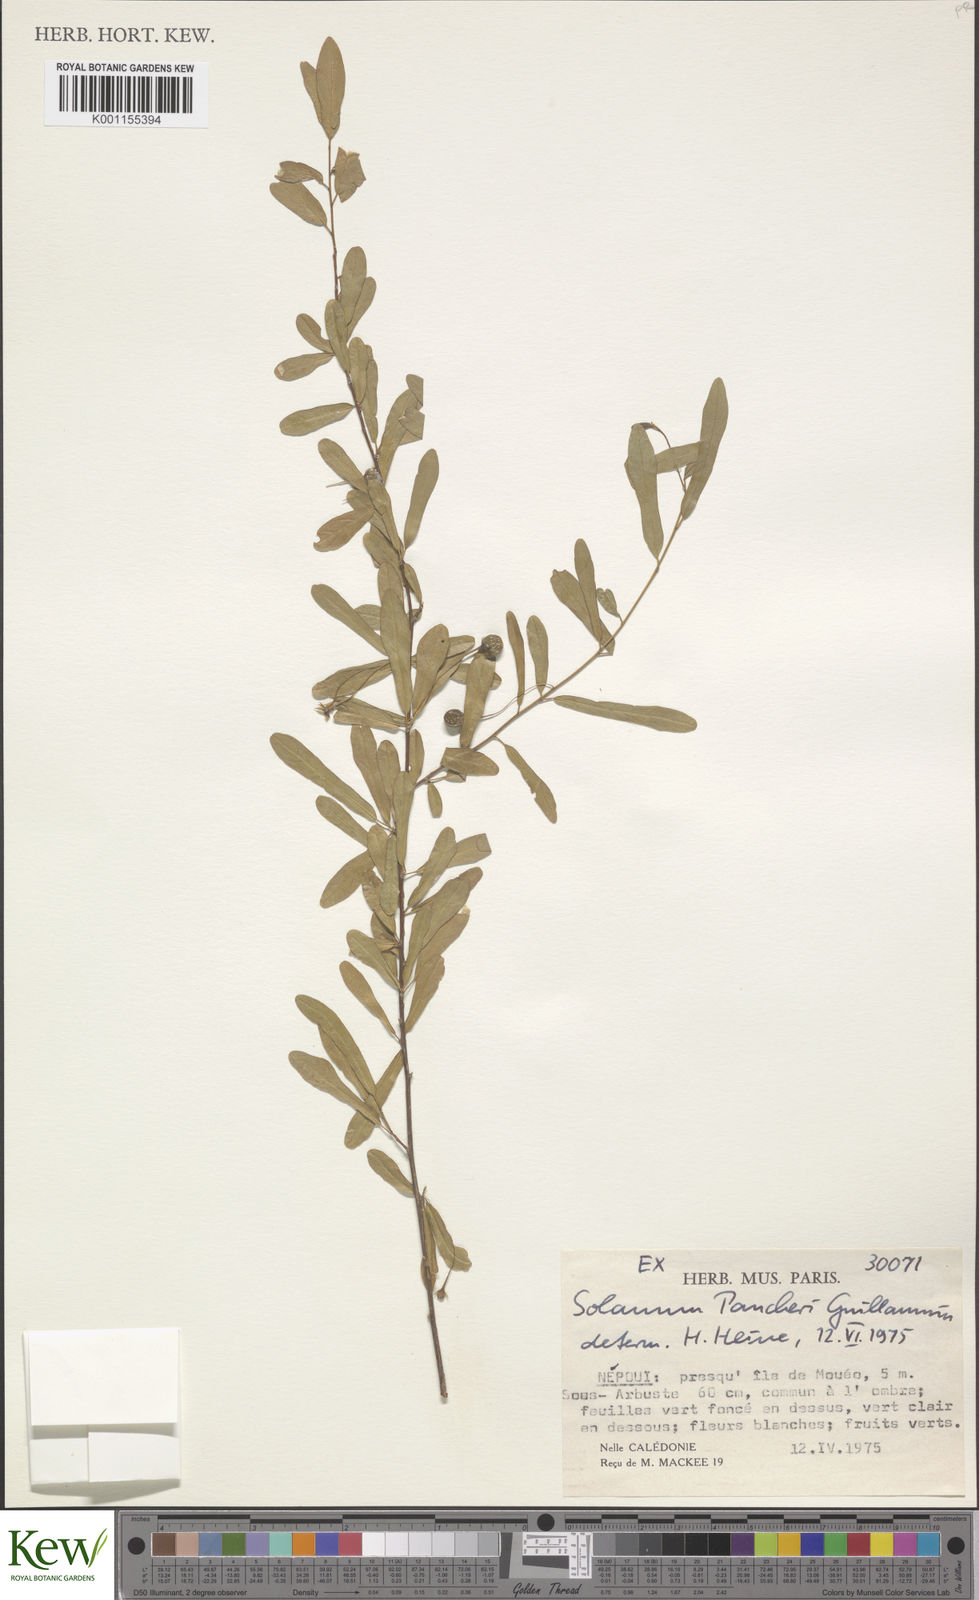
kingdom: Plantae
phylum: Tracheophyta
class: Magnoliopsida
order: Solanales
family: Solanaceae
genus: Solanum
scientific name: Solanum pancheri
